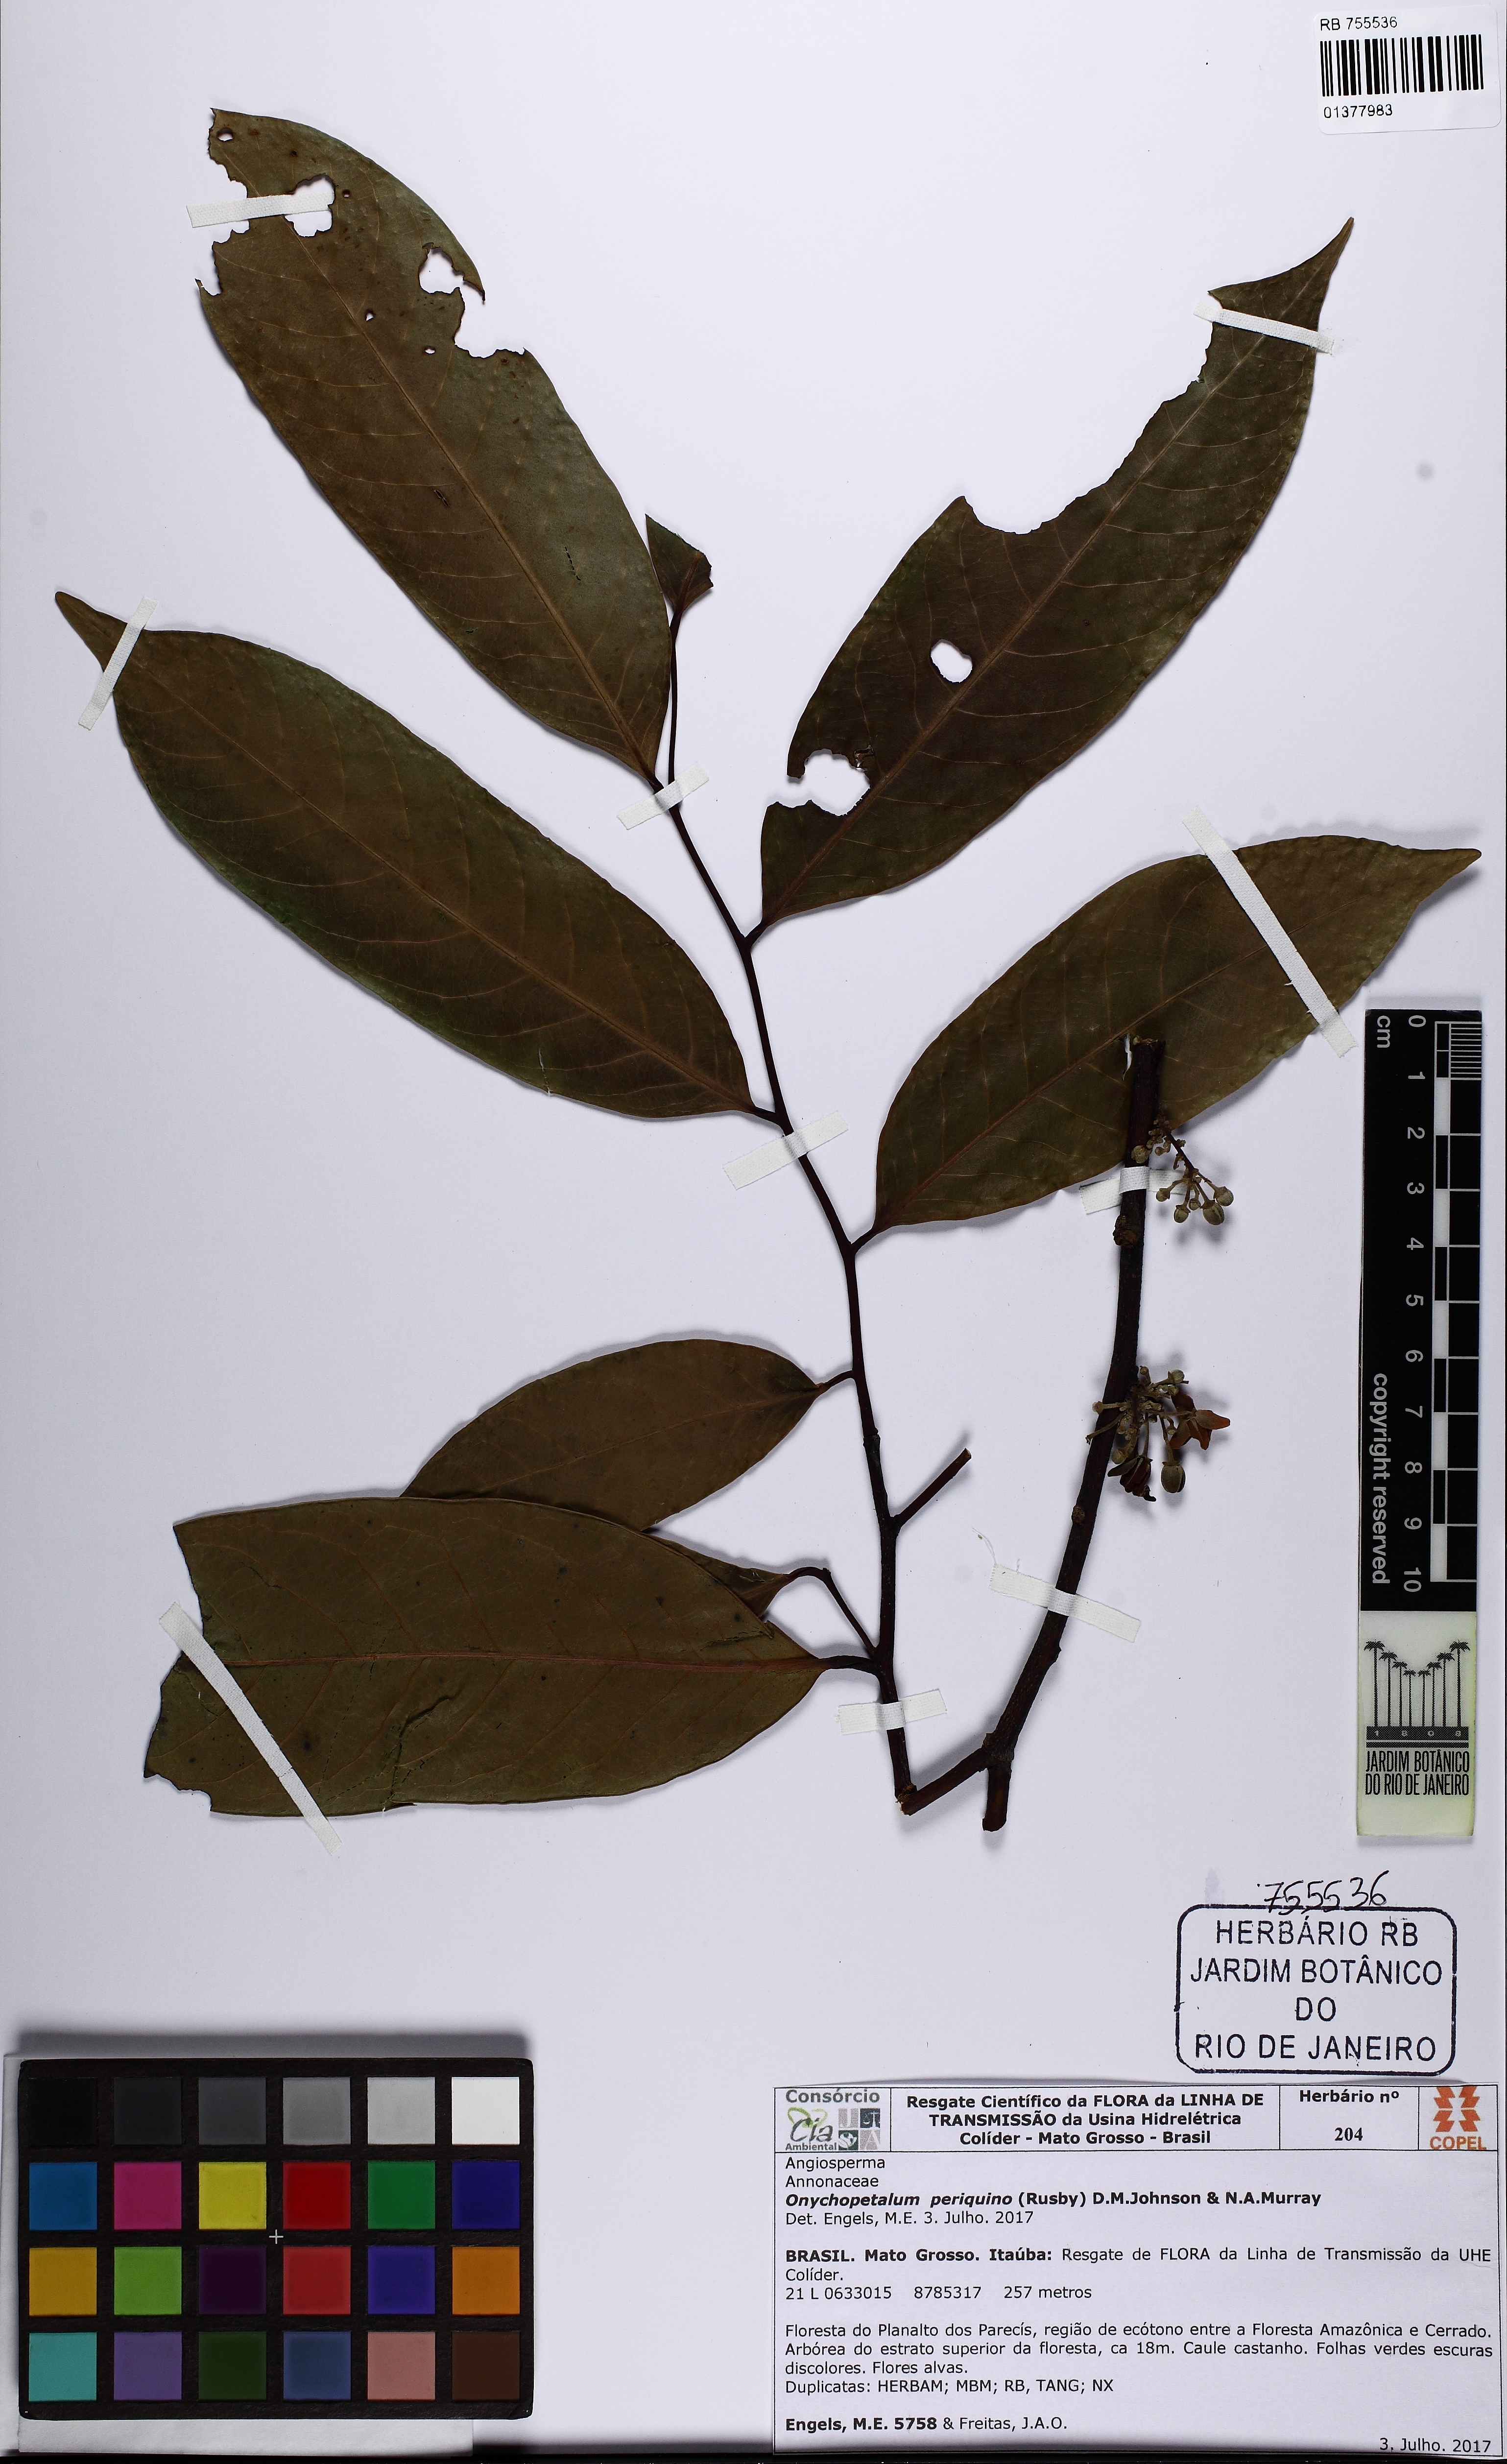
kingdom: Plantae
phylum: Tracheophyta
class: Magnoliopsida
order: Magnoliales
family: Annonaceae
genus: Onychopetalum
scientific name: Onychopetalum periquino
